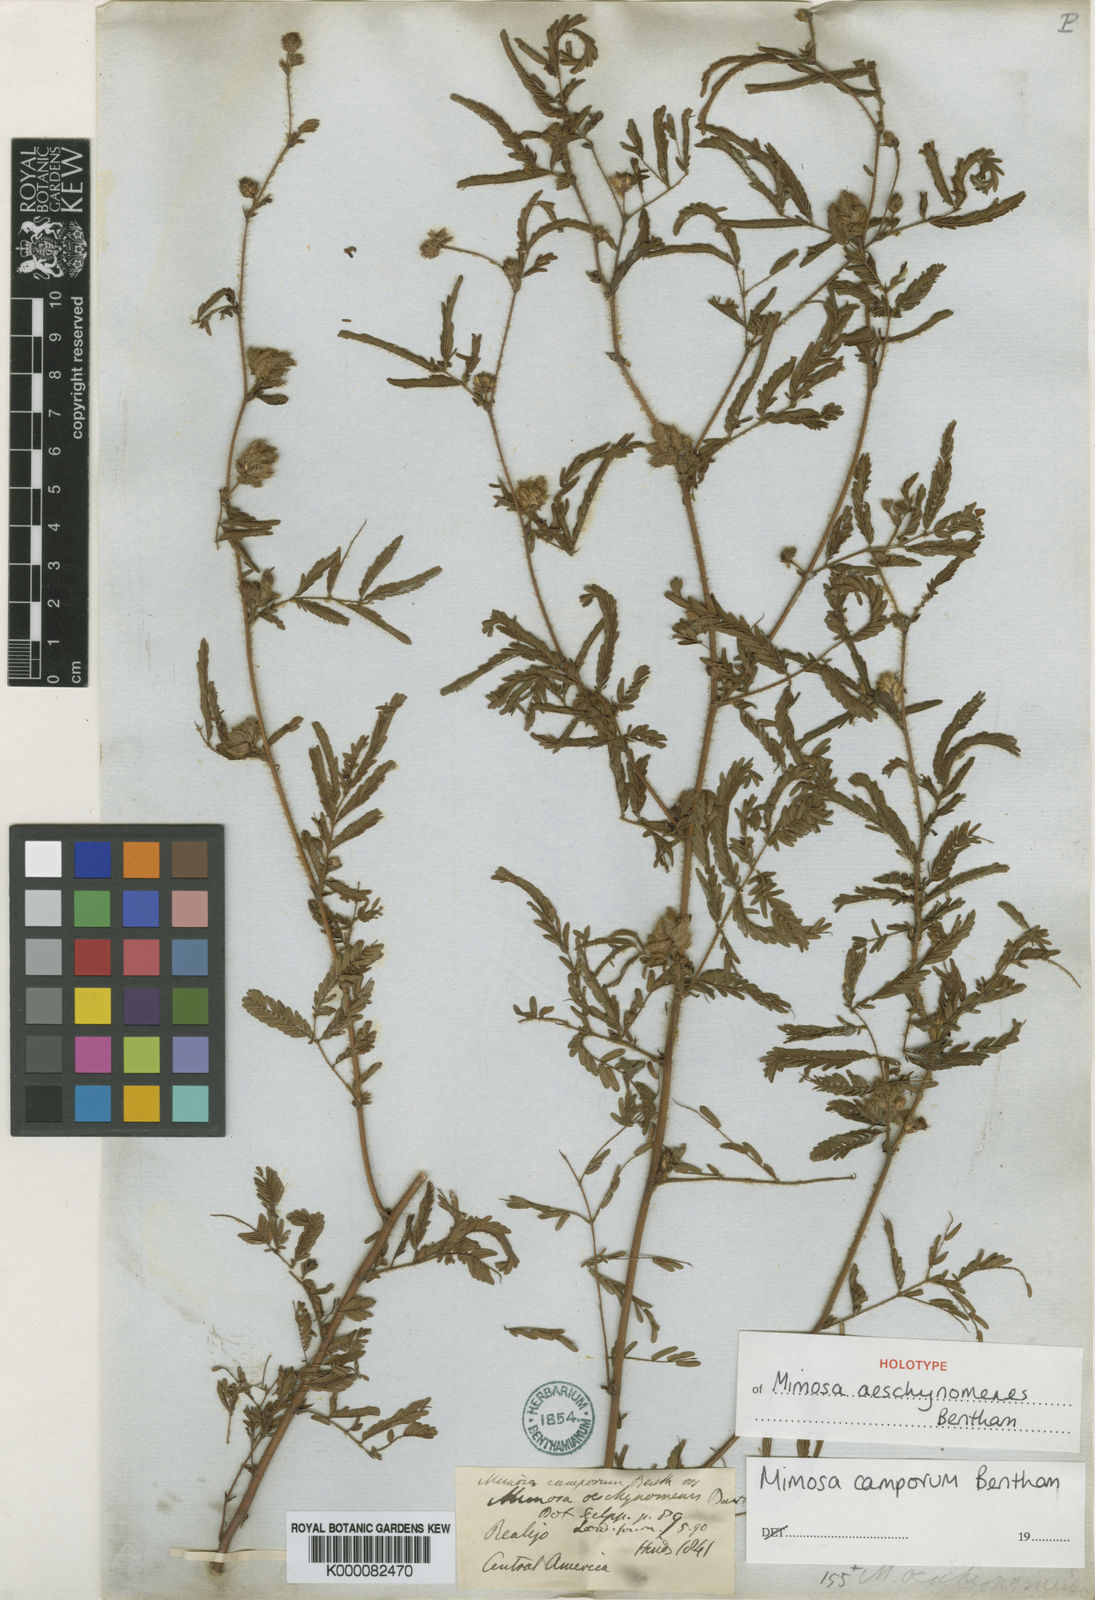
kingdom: Plantae
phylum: Tracheophyta
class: Magnoliopsida
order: Fabales
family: Fabaceae
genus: Mimosa
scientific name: Mimosa camporum
